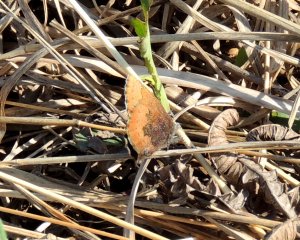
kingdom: Animalia
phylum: Arthropoda
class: Insecta
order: Lepidoptera
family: Lycaenidae
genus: Incisalia
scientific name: Incisalia irioides
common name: Brown Elfin
